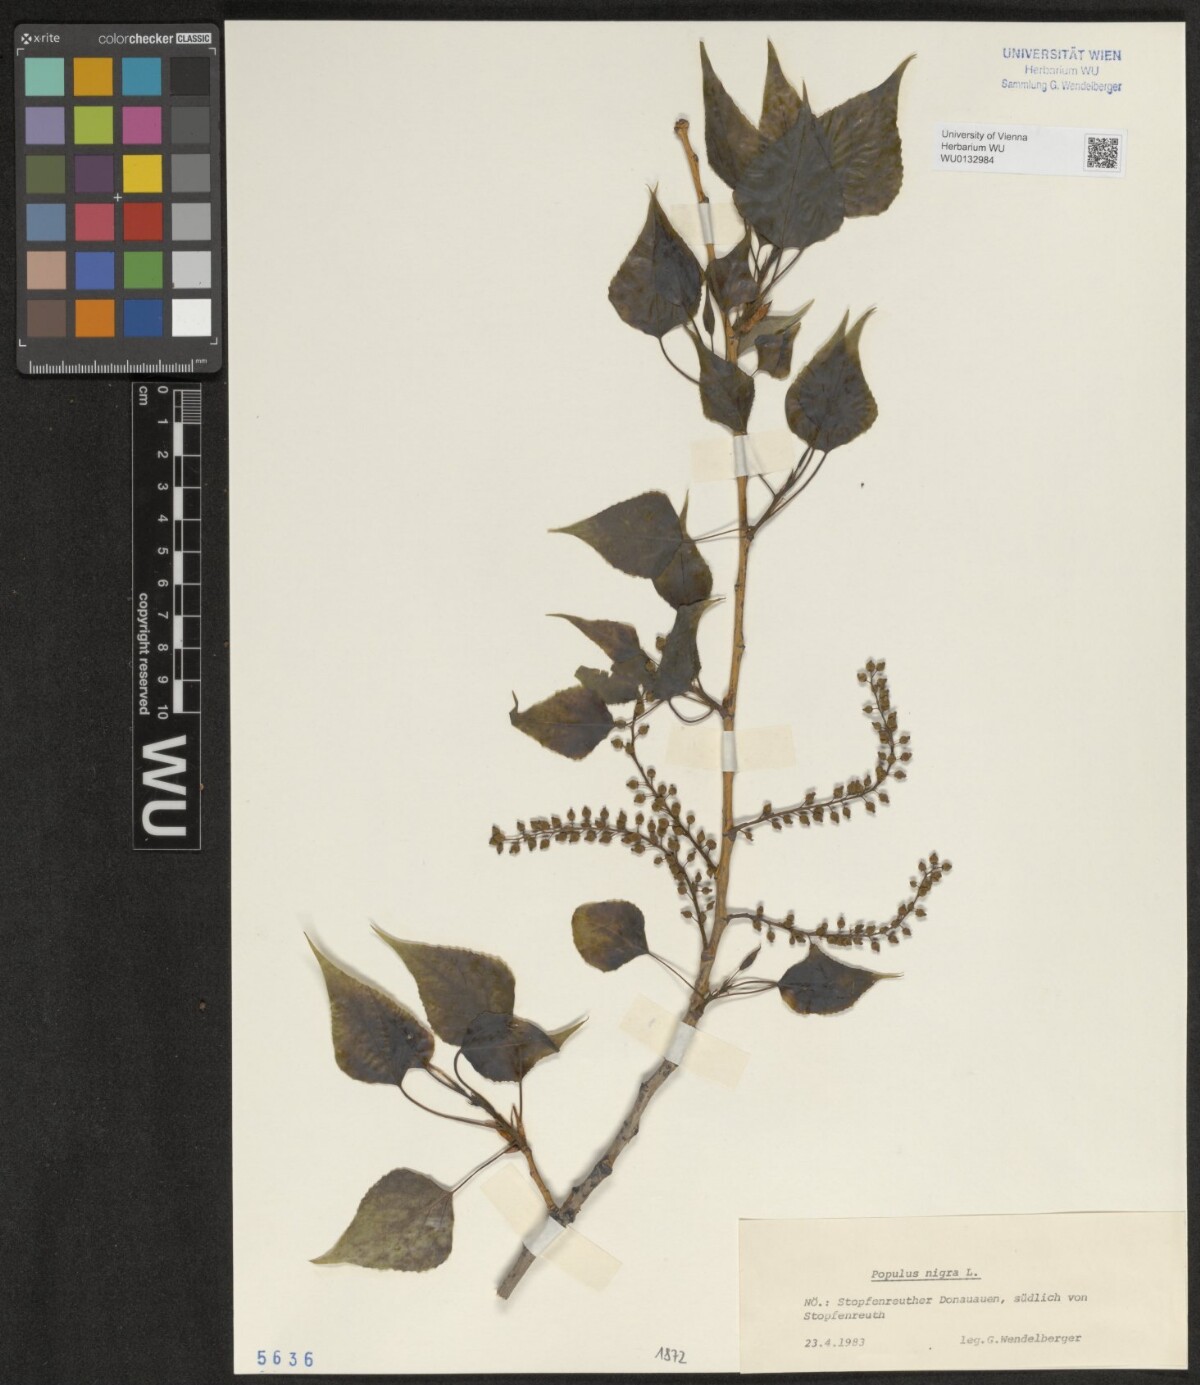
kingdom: Plantae
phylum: Tracheophyta
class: Magnoliopsida
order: Malpighiales
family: Salicaceae
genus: Populus
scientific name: Populus nigra
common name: Black poplar
